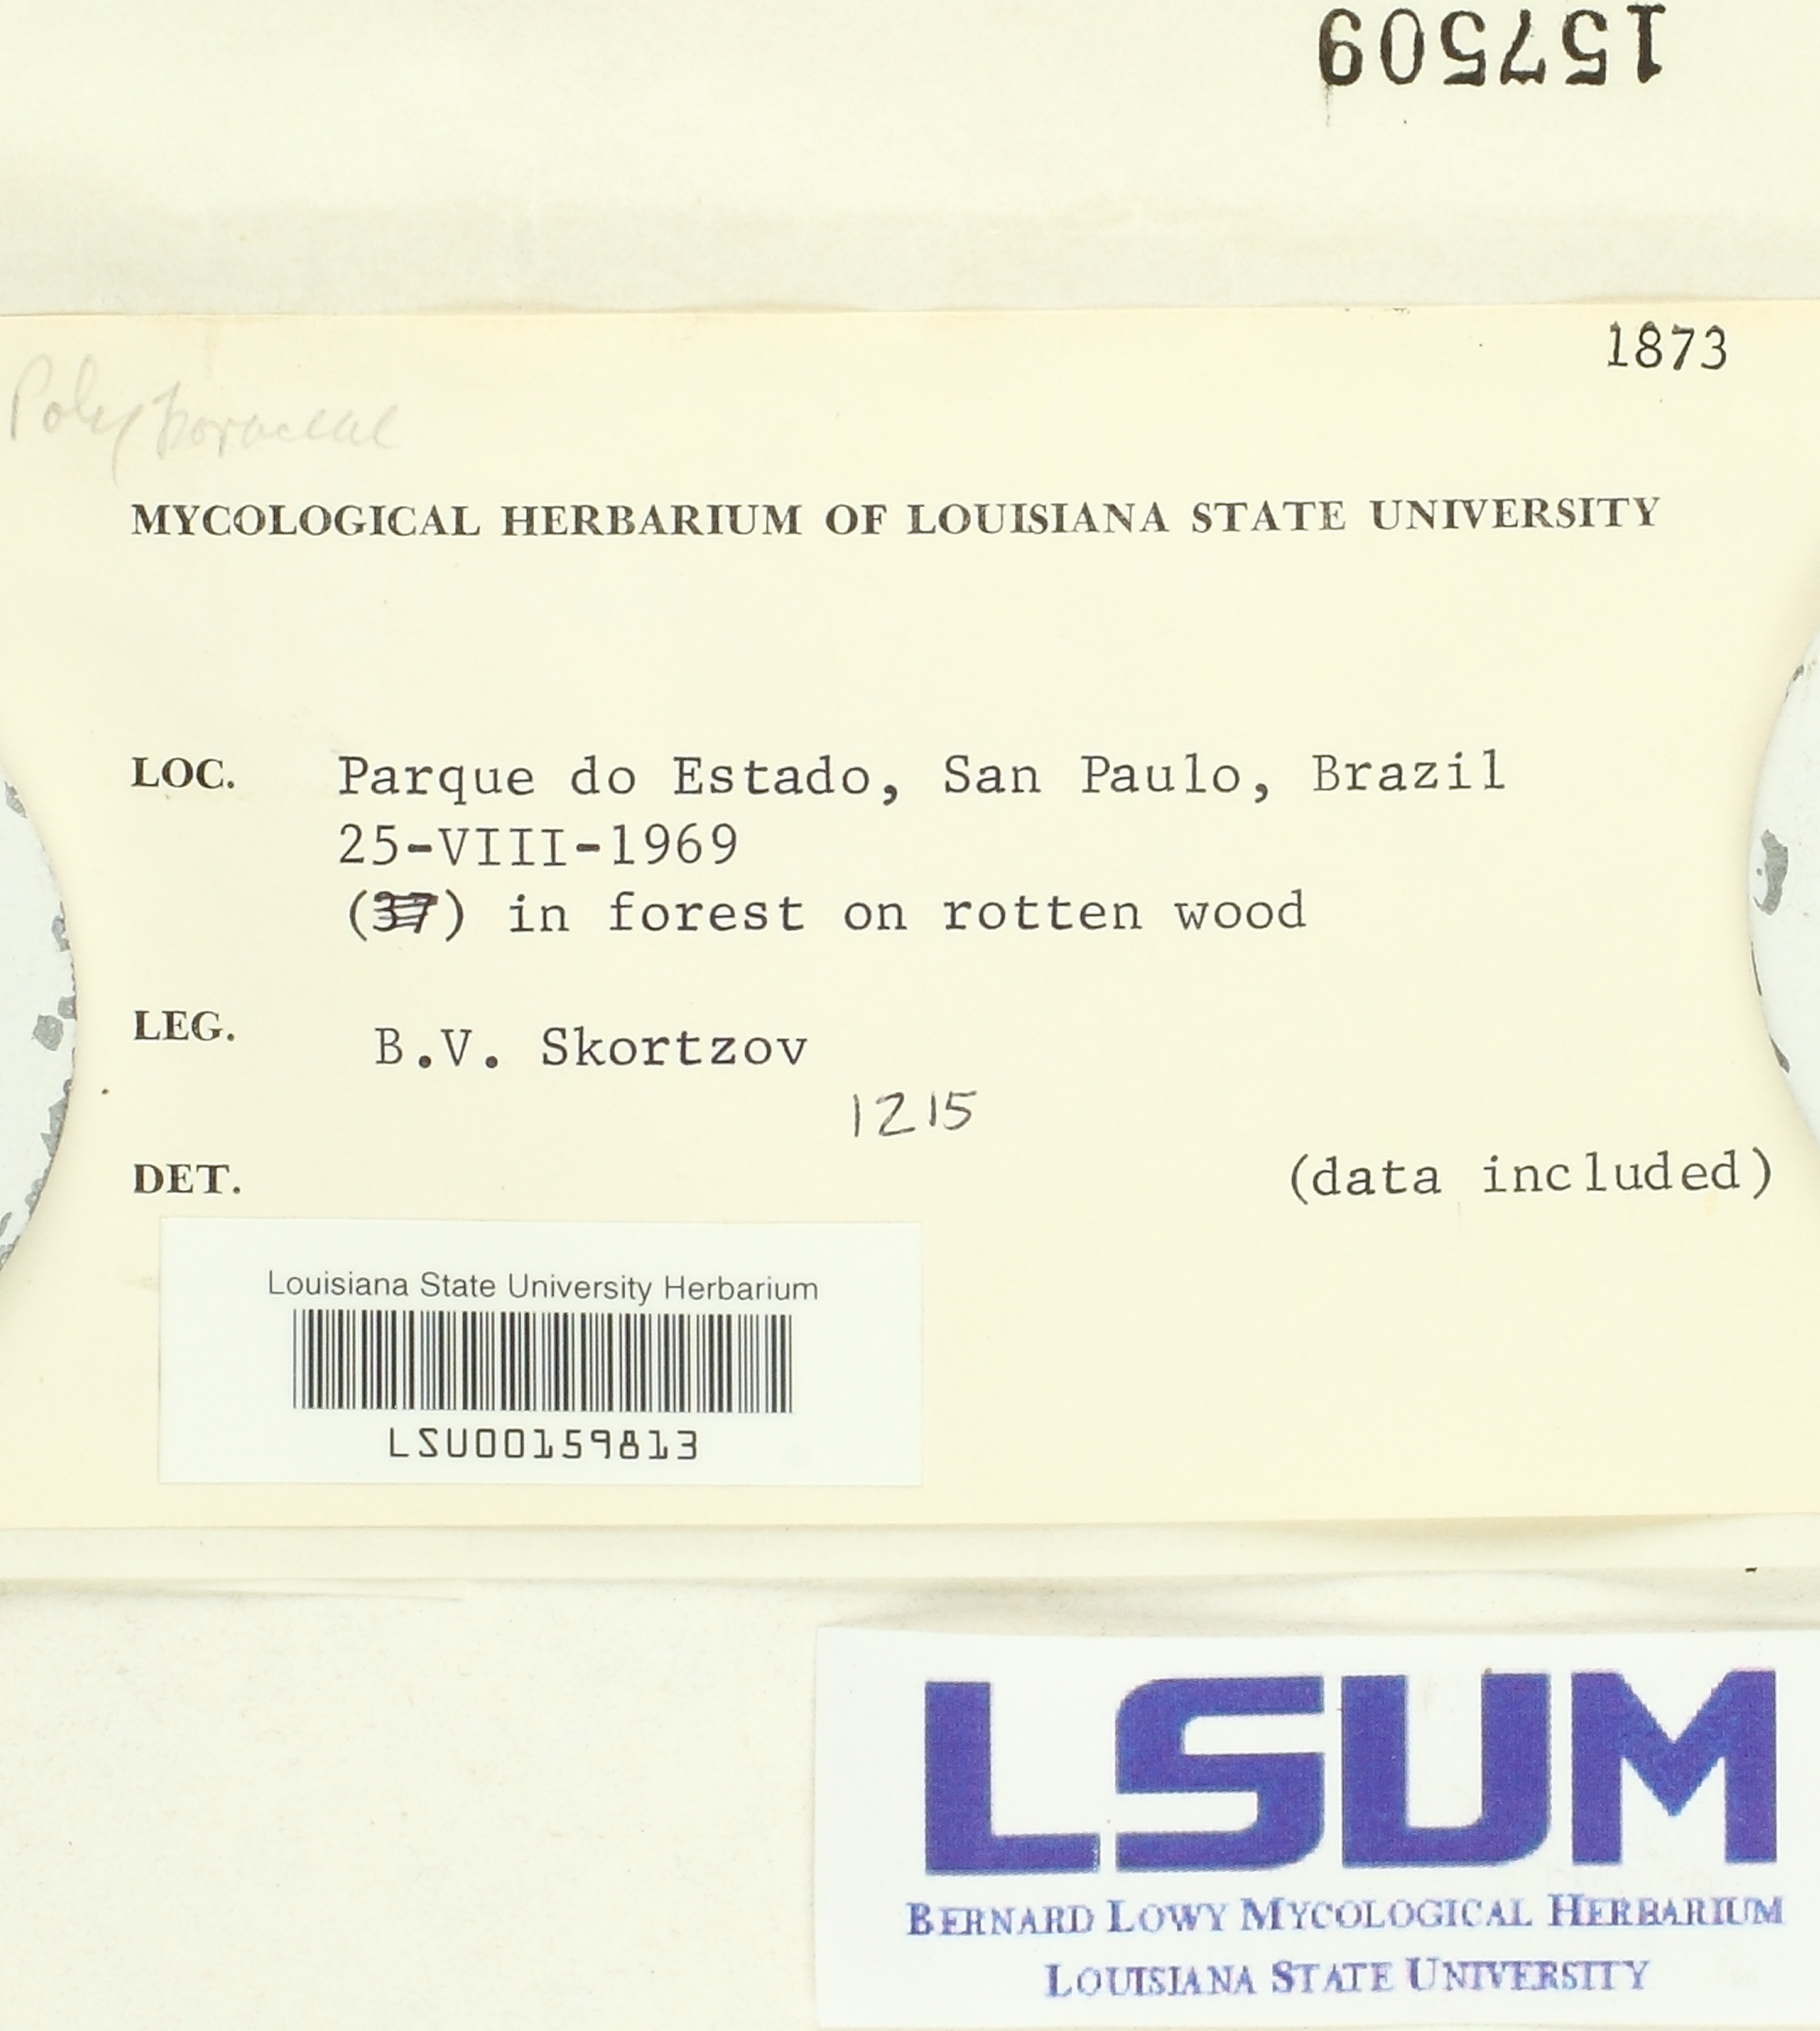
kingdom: Fungi
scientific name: Fungi
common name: Fungi
